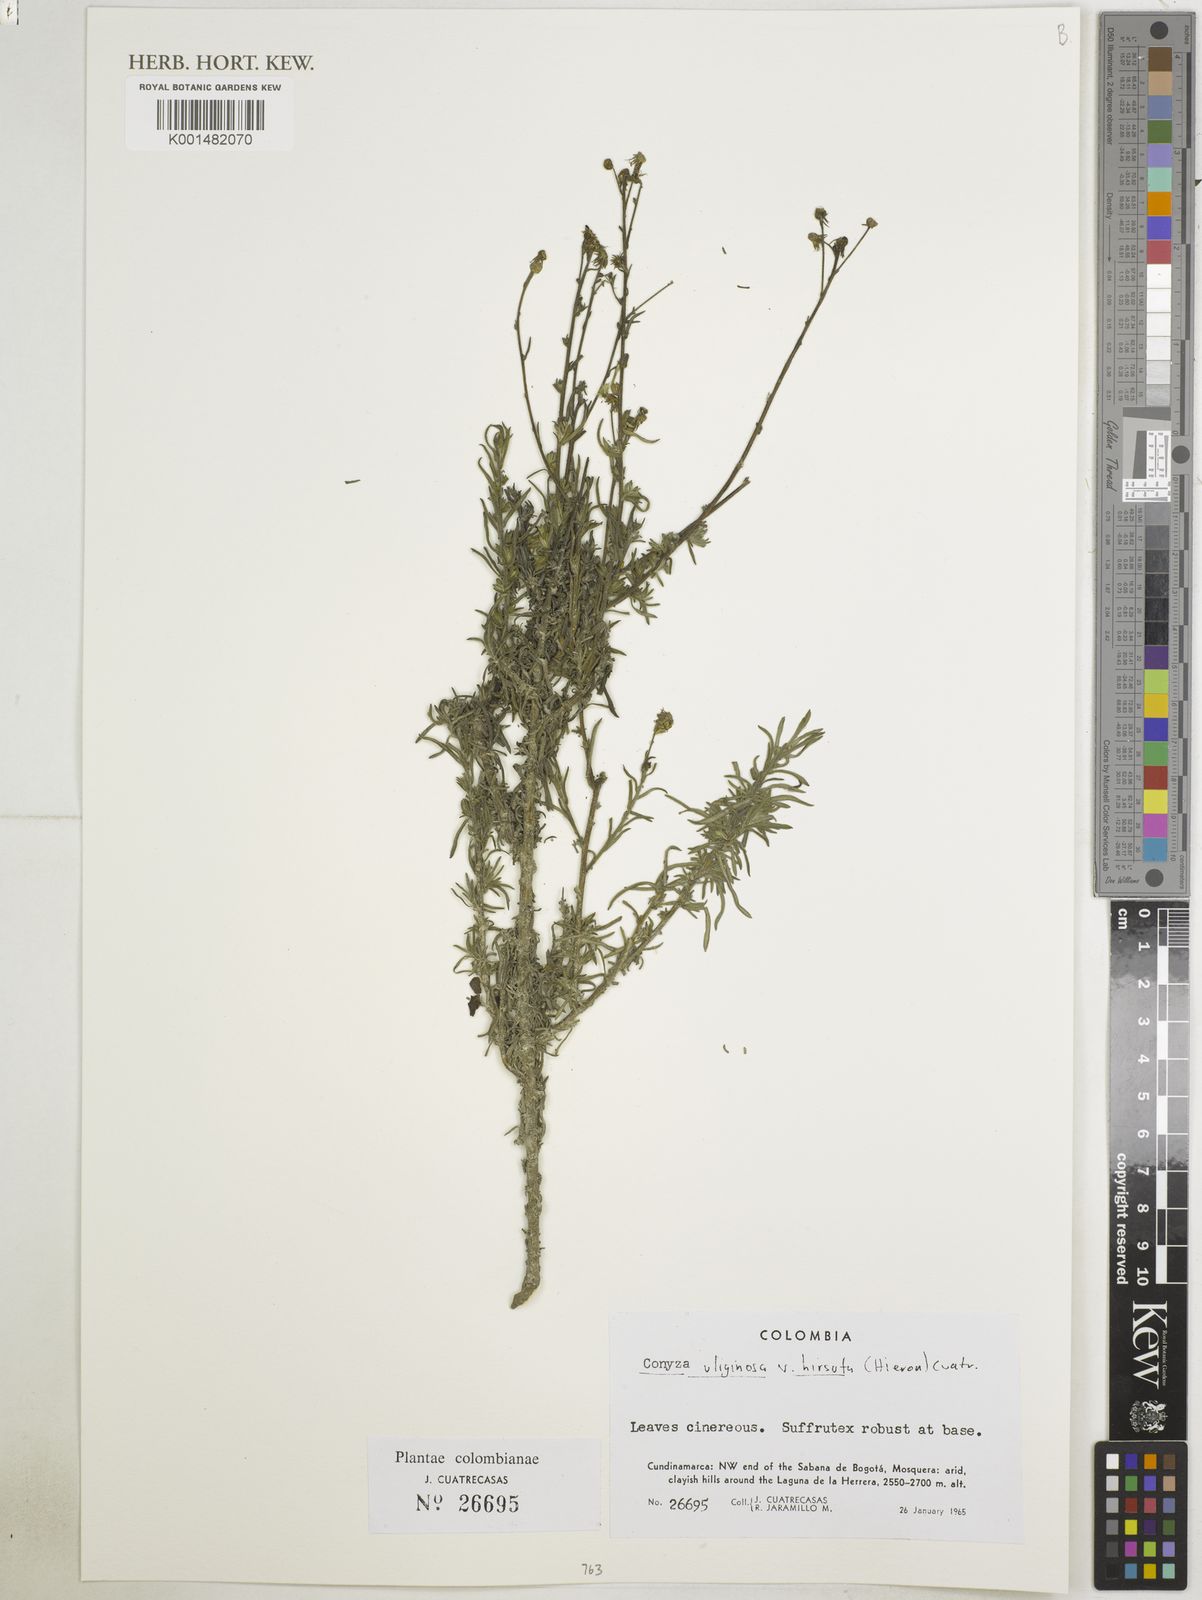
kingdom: Plantae
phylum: Tracheophyta
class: Magnoliopsida
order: Asterales
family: Asteraceae
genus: Erigeron
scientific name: Erigeron uliginosus
